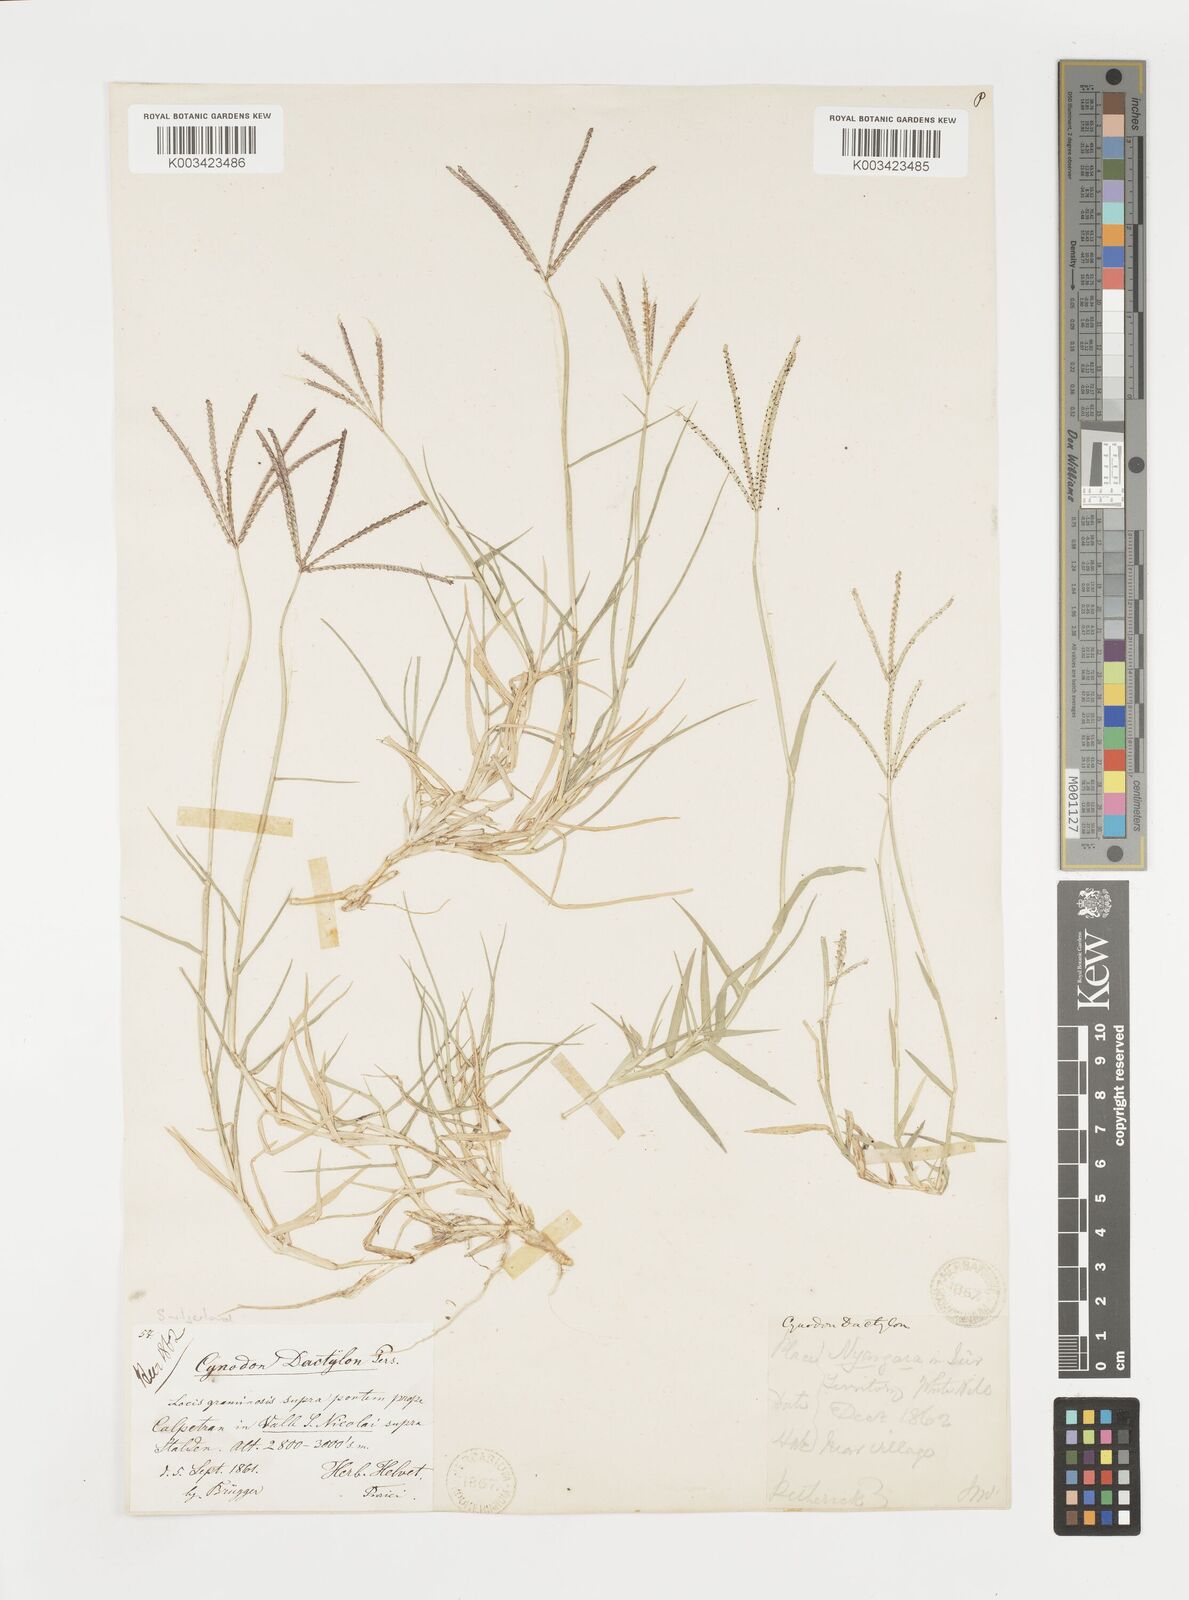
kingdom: Plantae
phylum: Tracheophyta
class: Liliopsida
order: Poales
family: Poaceae
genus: Cynodon
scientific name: Cynodon dactylon
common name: Bermuda grass
